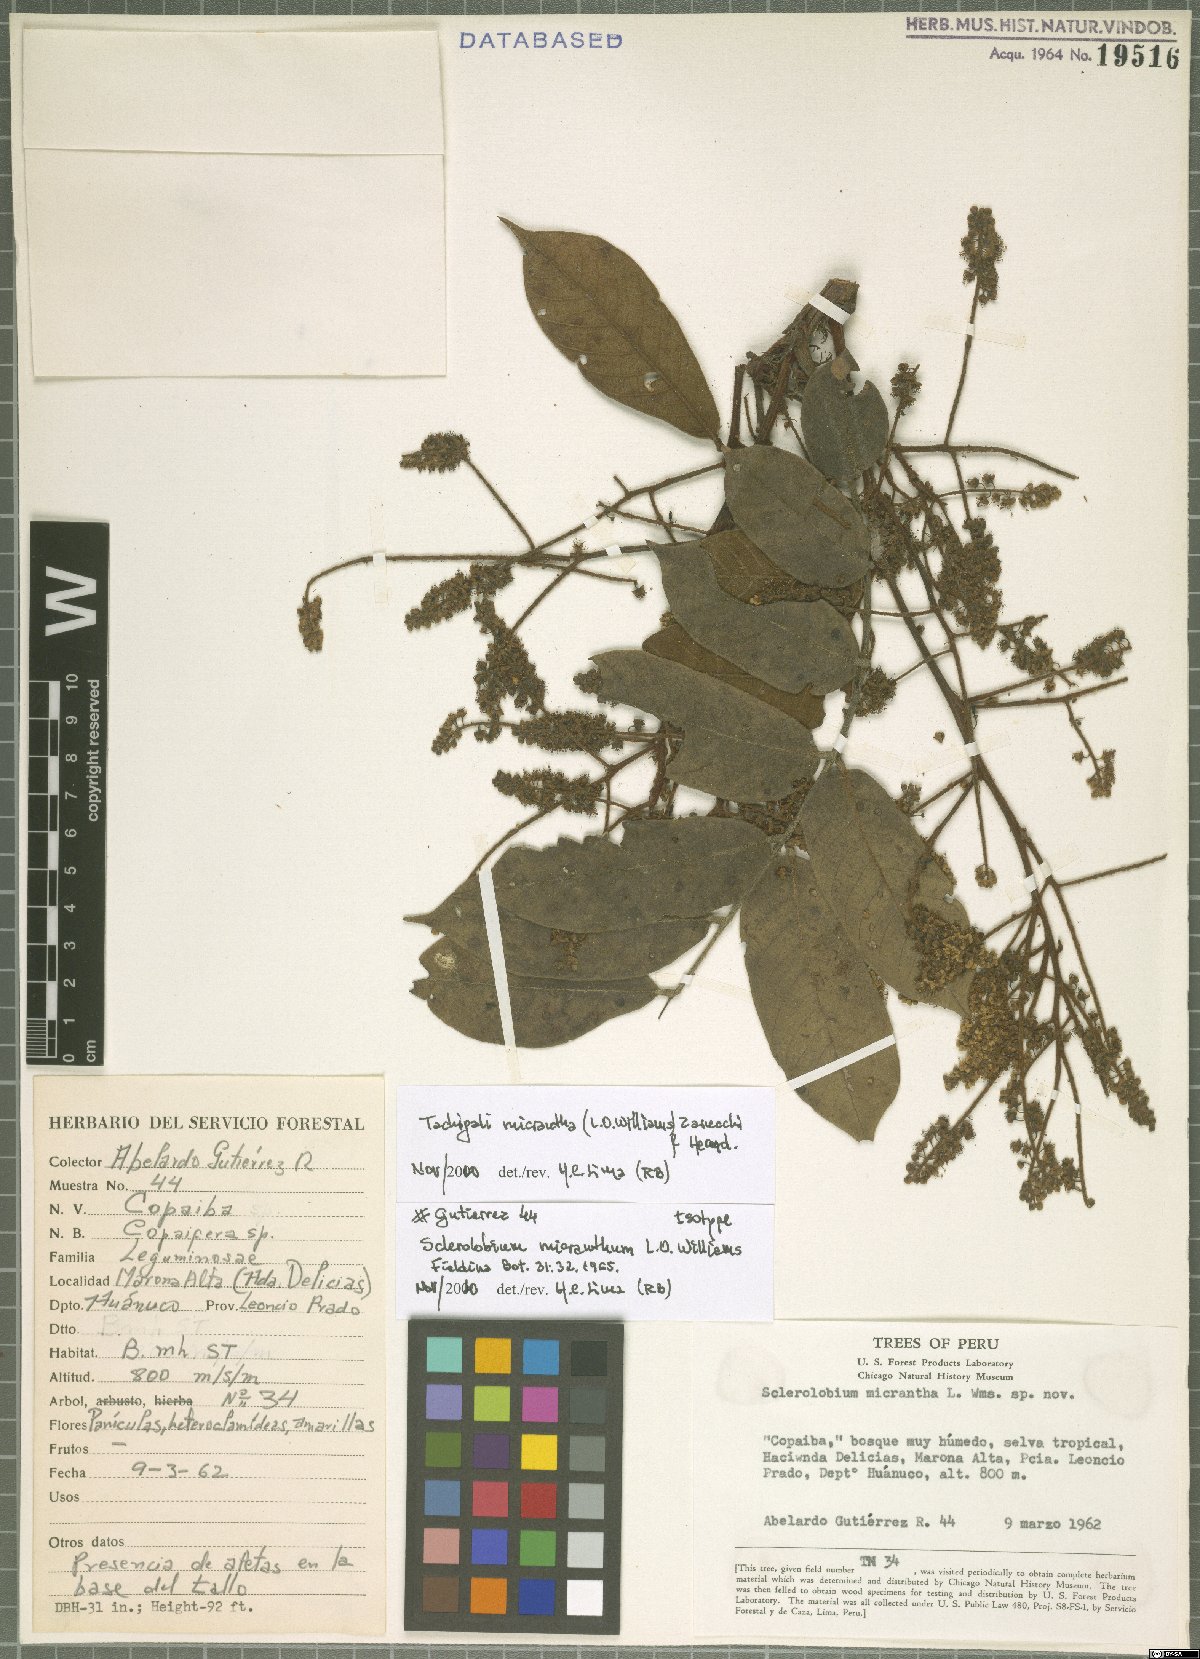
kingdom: Plantae
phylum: Tracheophyta
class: Magnoliopsida
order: Fabales
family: Fabaceae
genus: Tachigali
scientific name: Tachigali micrantha
